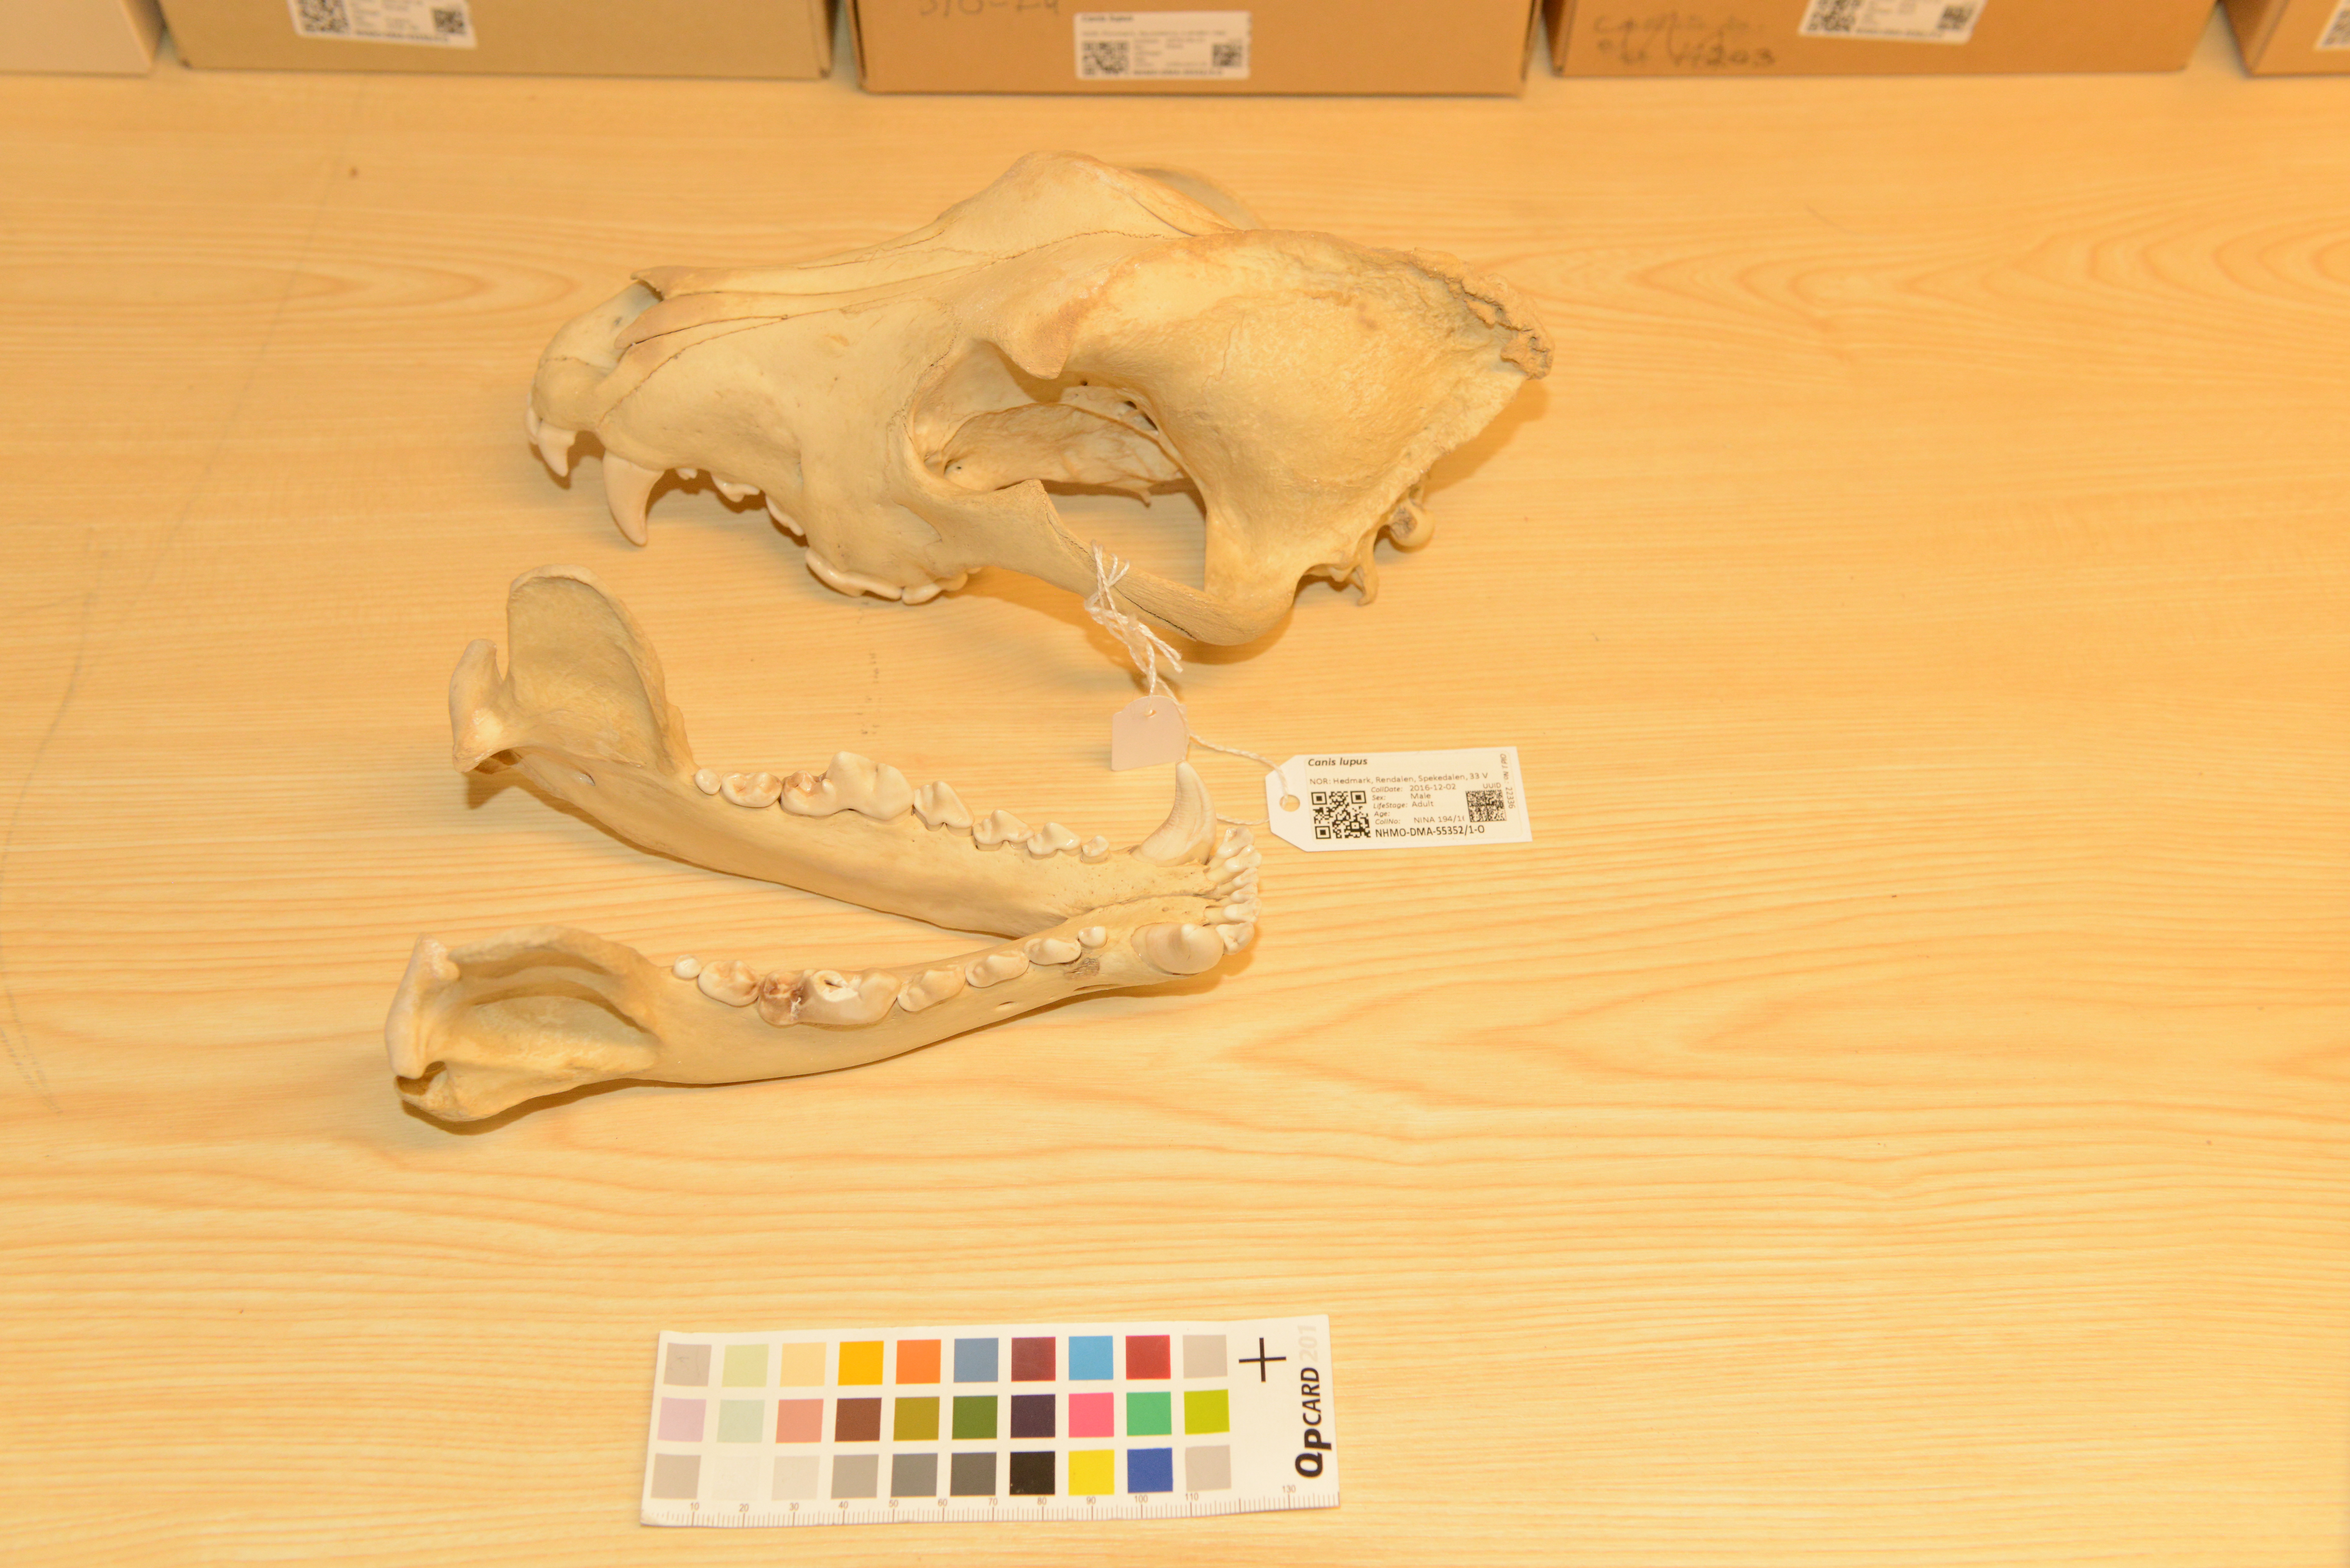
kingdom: Animalia
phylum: Chordata
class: Mammalia
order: Carnivora
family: Canidae
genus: Canis
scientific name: Canis lupus
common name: Gray wolf
